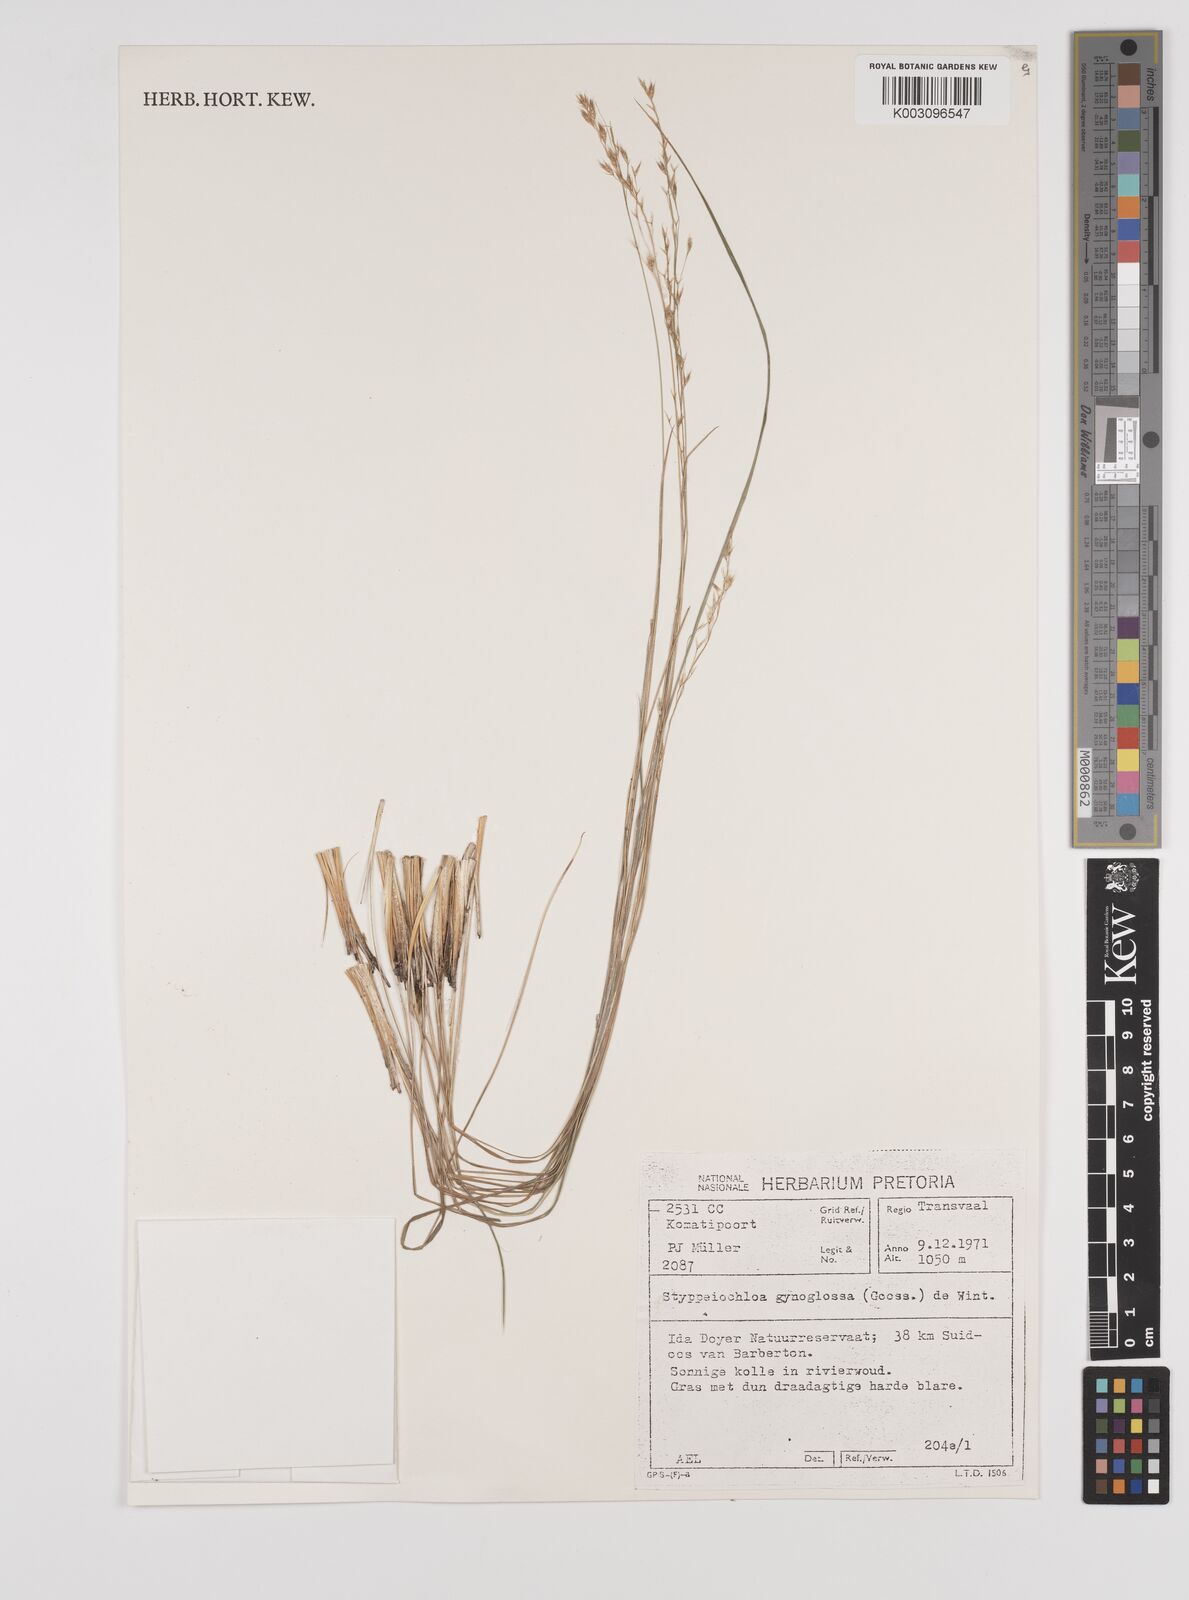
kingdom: Plantae
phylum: Tracheophyta
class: Liliopsida
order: Poales
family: Poaceae
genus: Styppeiochloa
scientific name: Styppeiochloa gynoglossa
